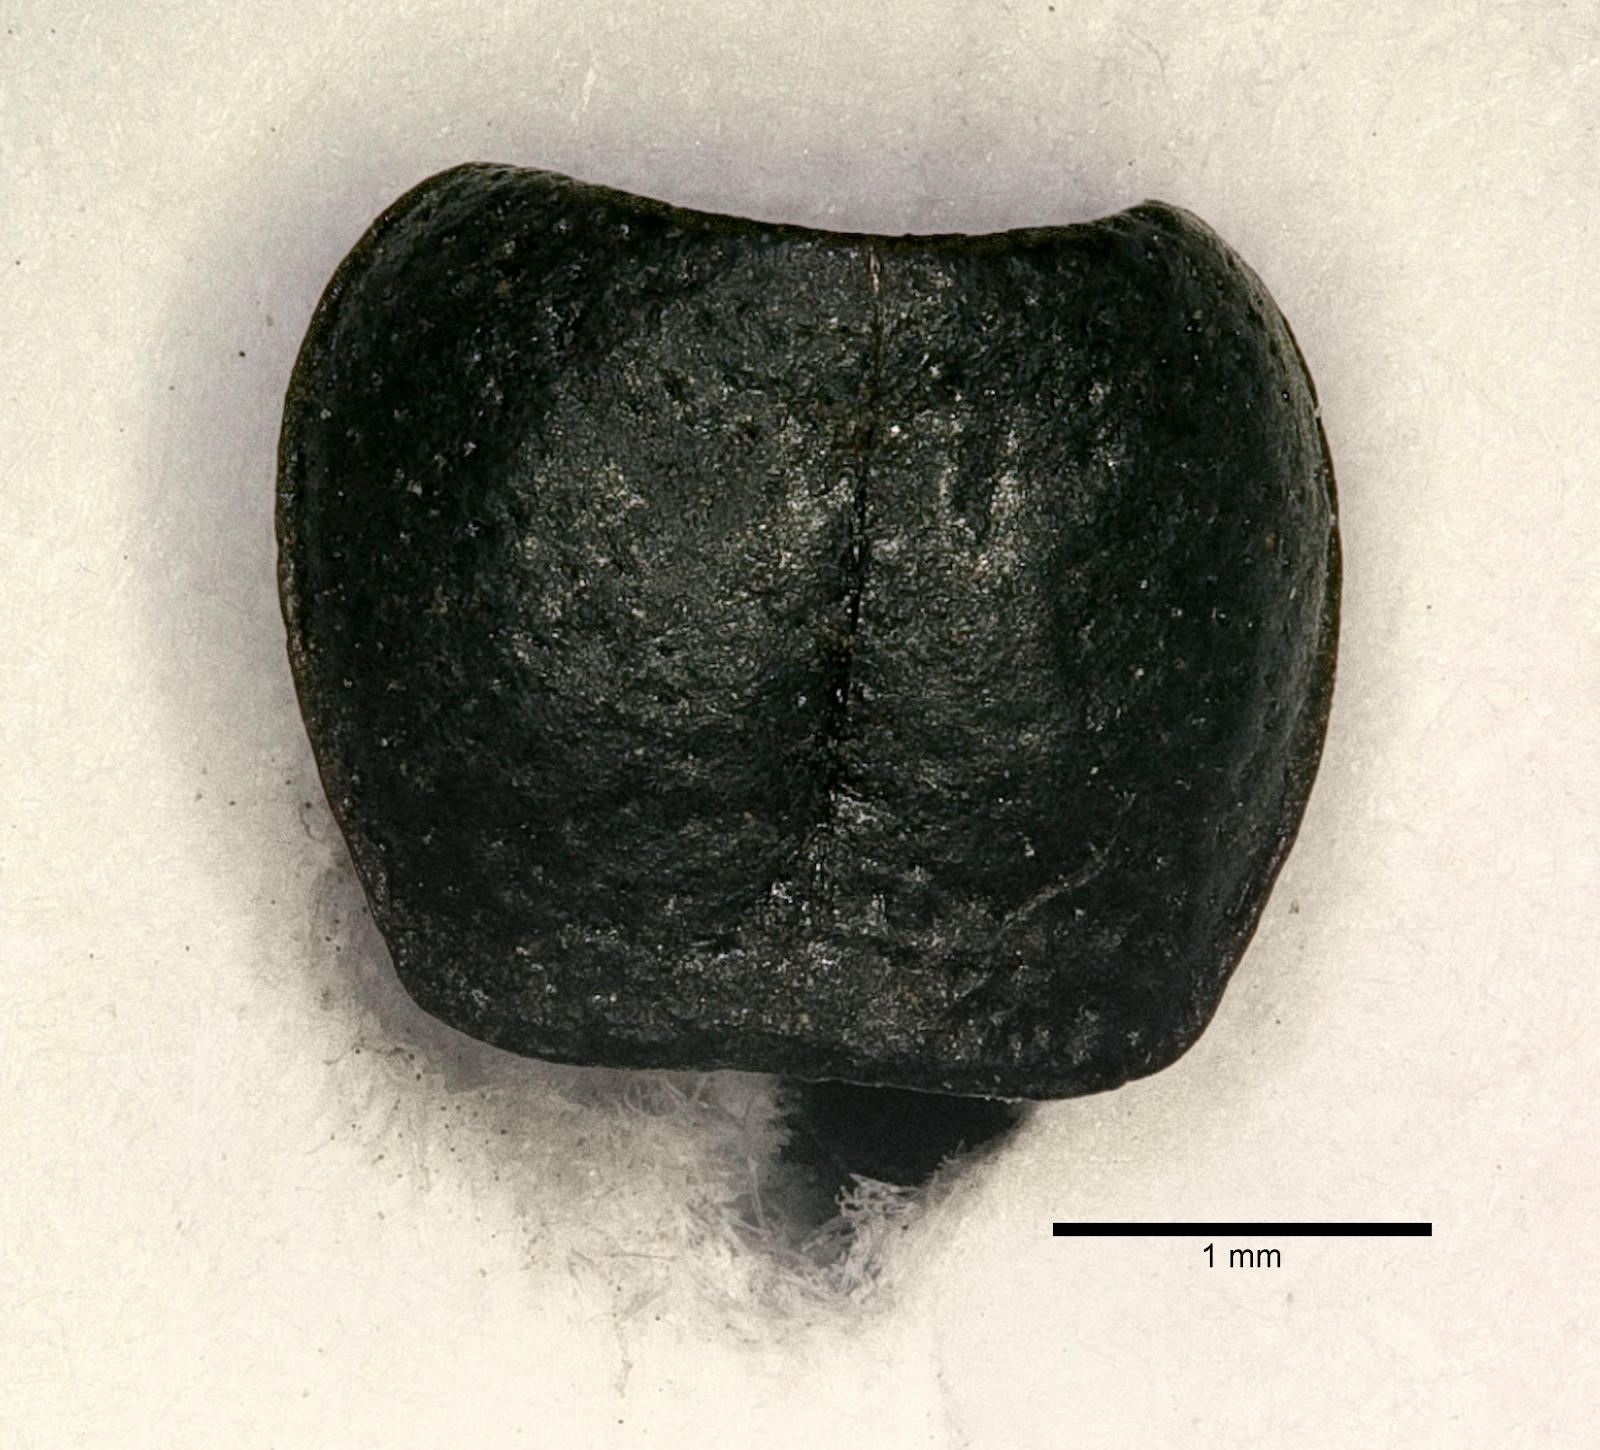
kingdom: Animalia
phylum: Arthropoda
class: Insecta
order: Coleoptera
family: Carabidae
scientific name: Carabidae
